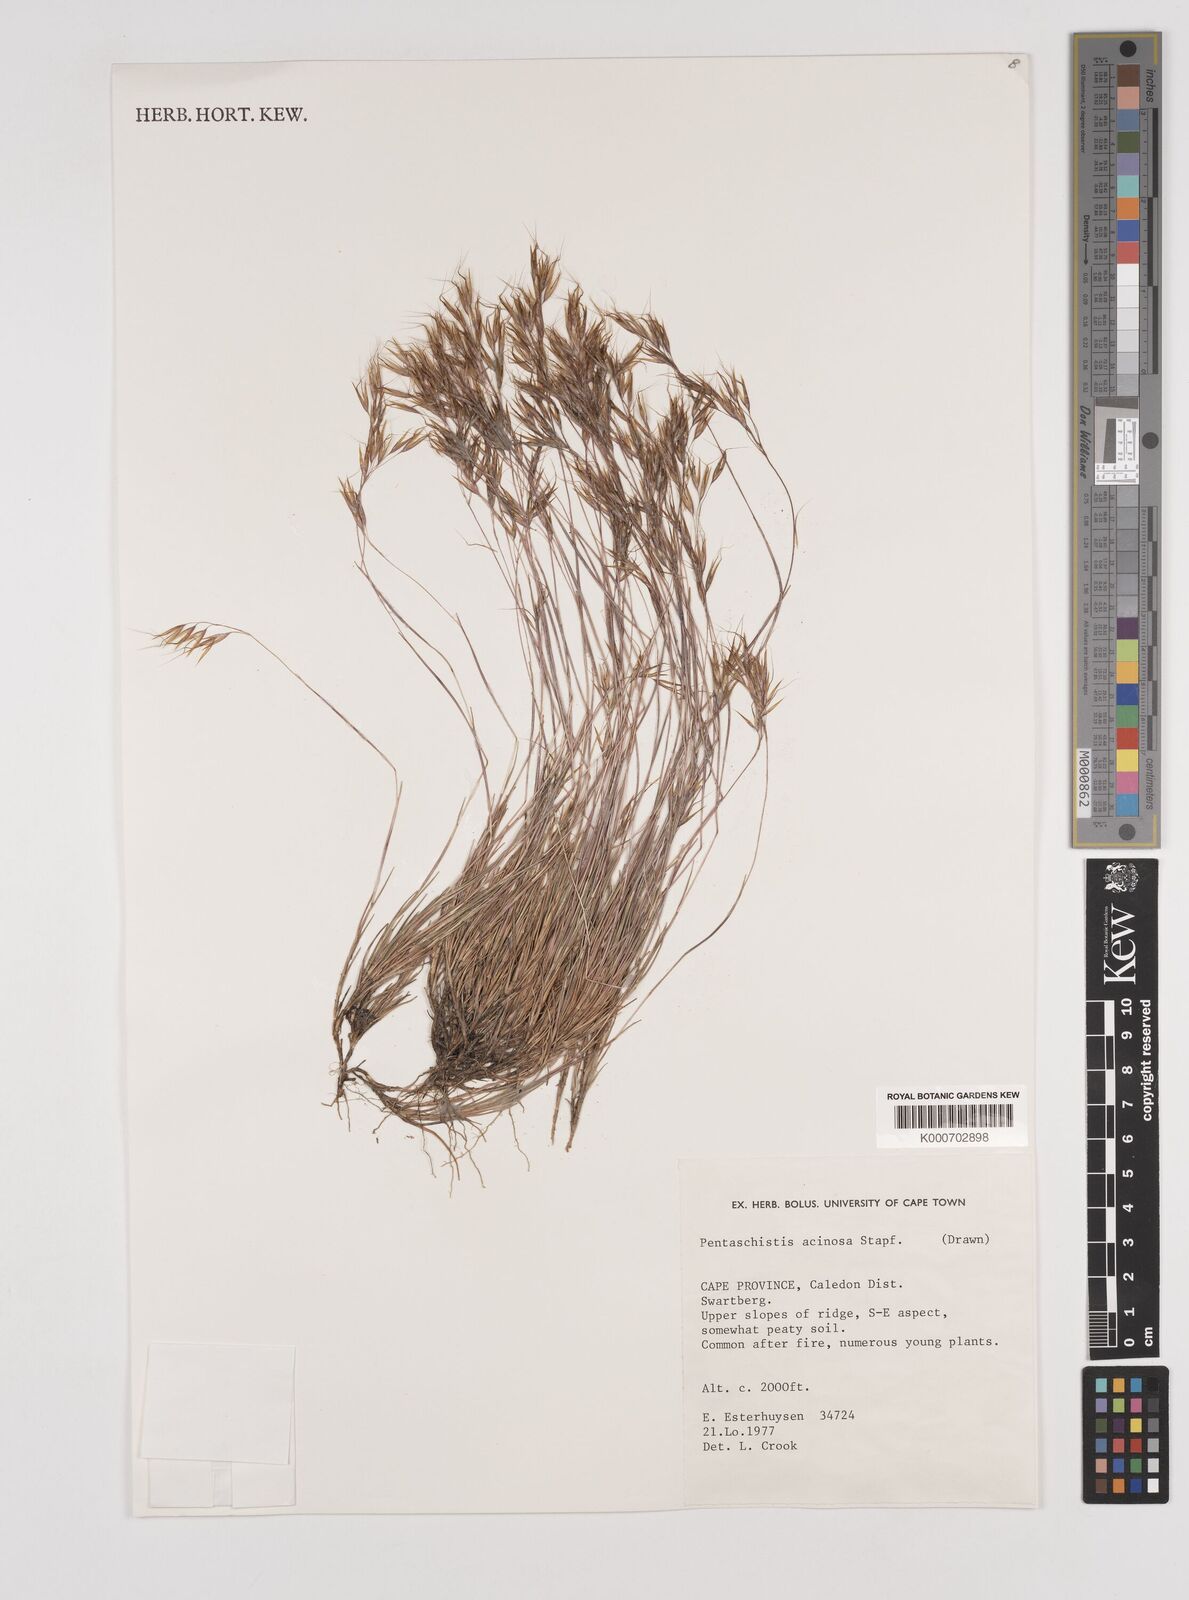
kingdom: Plantae
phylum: Tracheophyta
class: Liliopsida
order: Poales
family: Poaceae
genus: Pentameris
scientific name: Pentameris barbata
